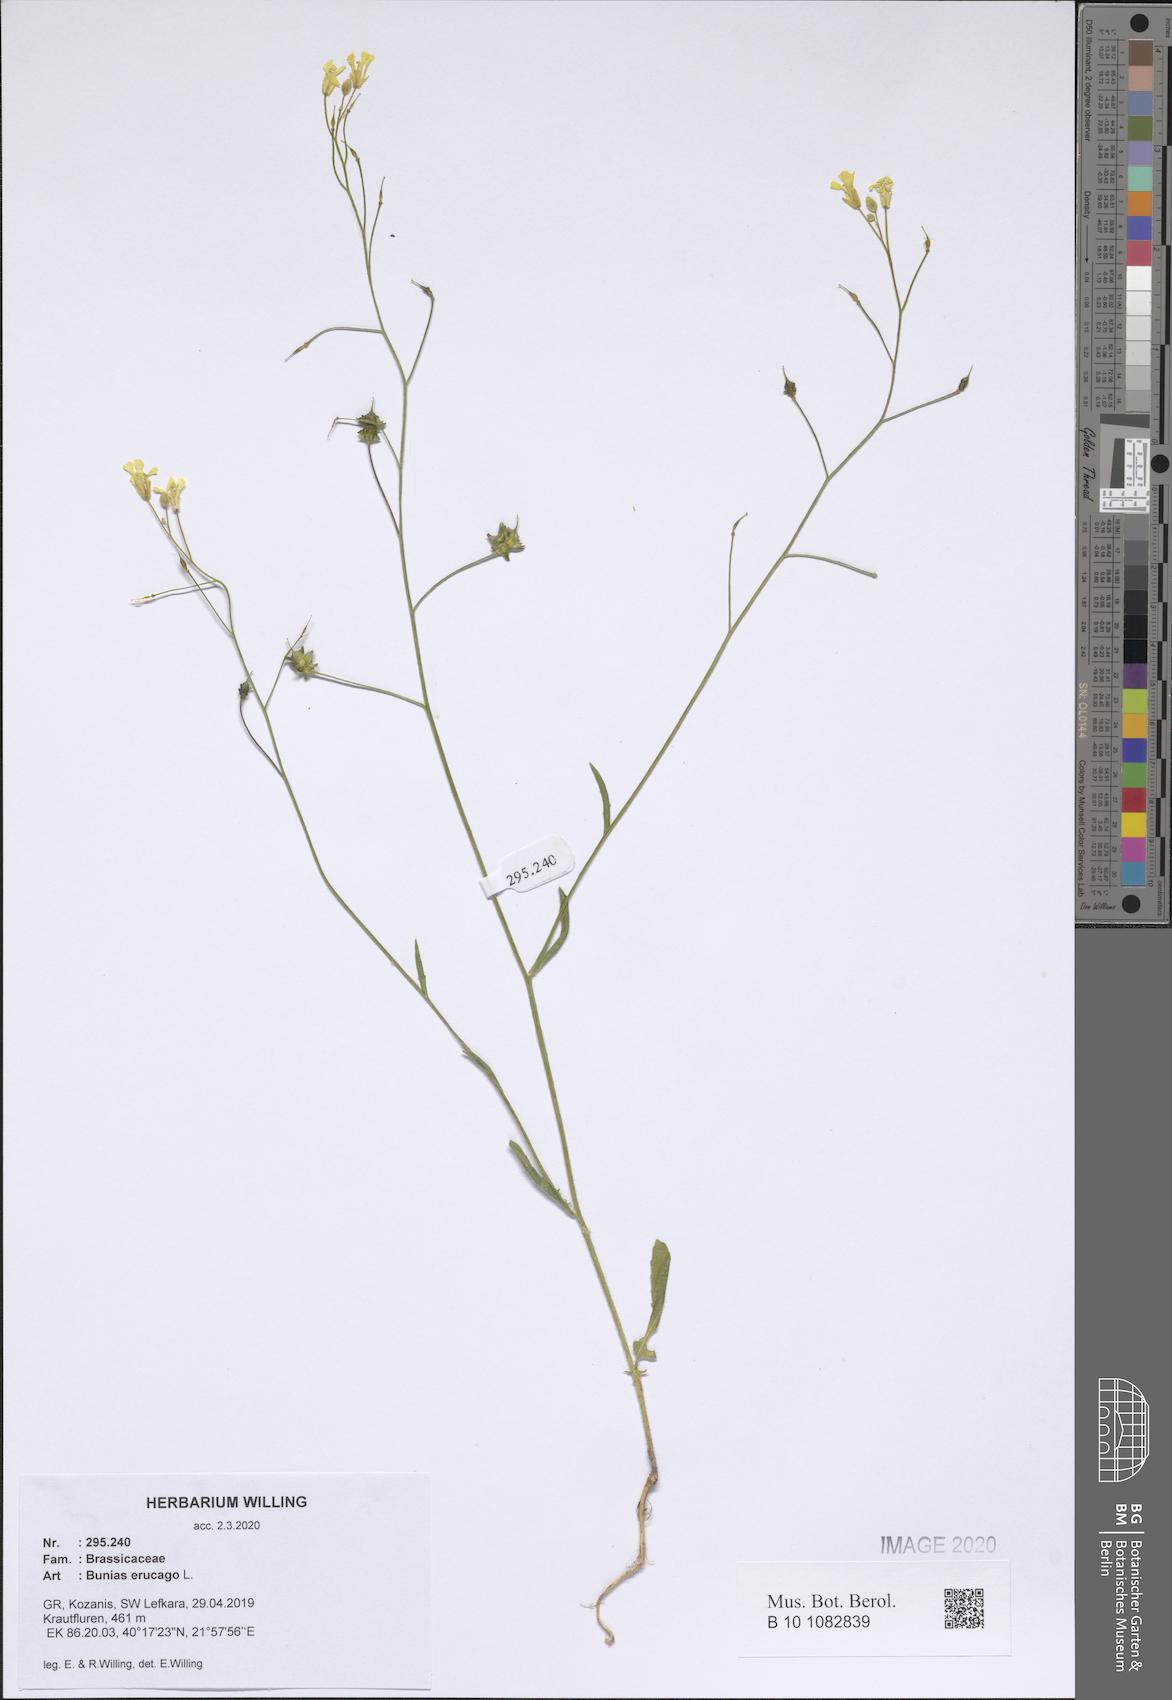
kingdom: Plantae
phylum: Tracheophyta
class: Magnoliopsida
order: Brassicales
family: Brassicaceae
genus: Bunias
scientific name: Bunias erucago
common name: Southern warty-cabbage
